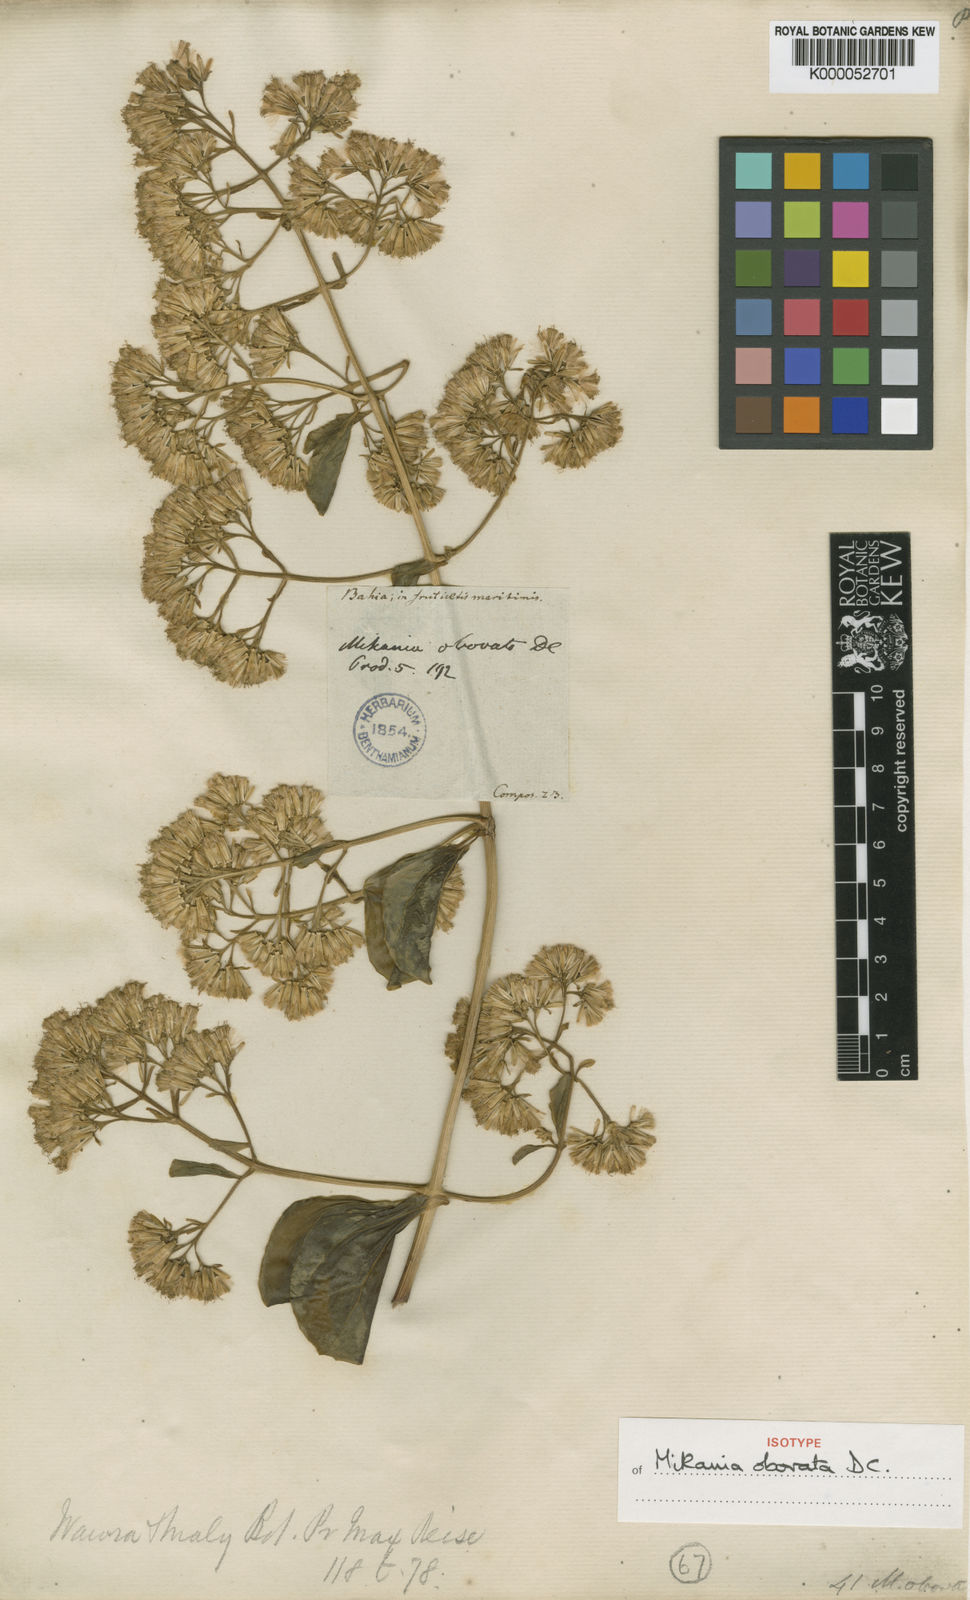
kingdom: Plantae
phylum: Tracheophyta
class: Magnoliopsida
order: Asterales
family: Asteraceae
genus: Mikania
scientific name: Mikania obovata
